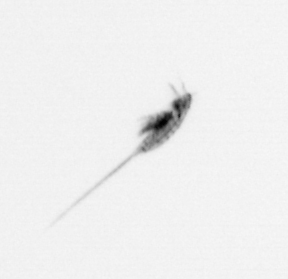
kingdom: Animalia
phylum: Arthropoda
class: Copepoda
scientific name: Copepoda
